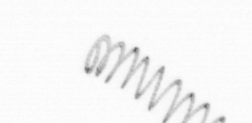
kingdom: Chromista
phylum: Ochrophyta
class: Bacillariophyceae
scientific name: Bacillariophyceae
